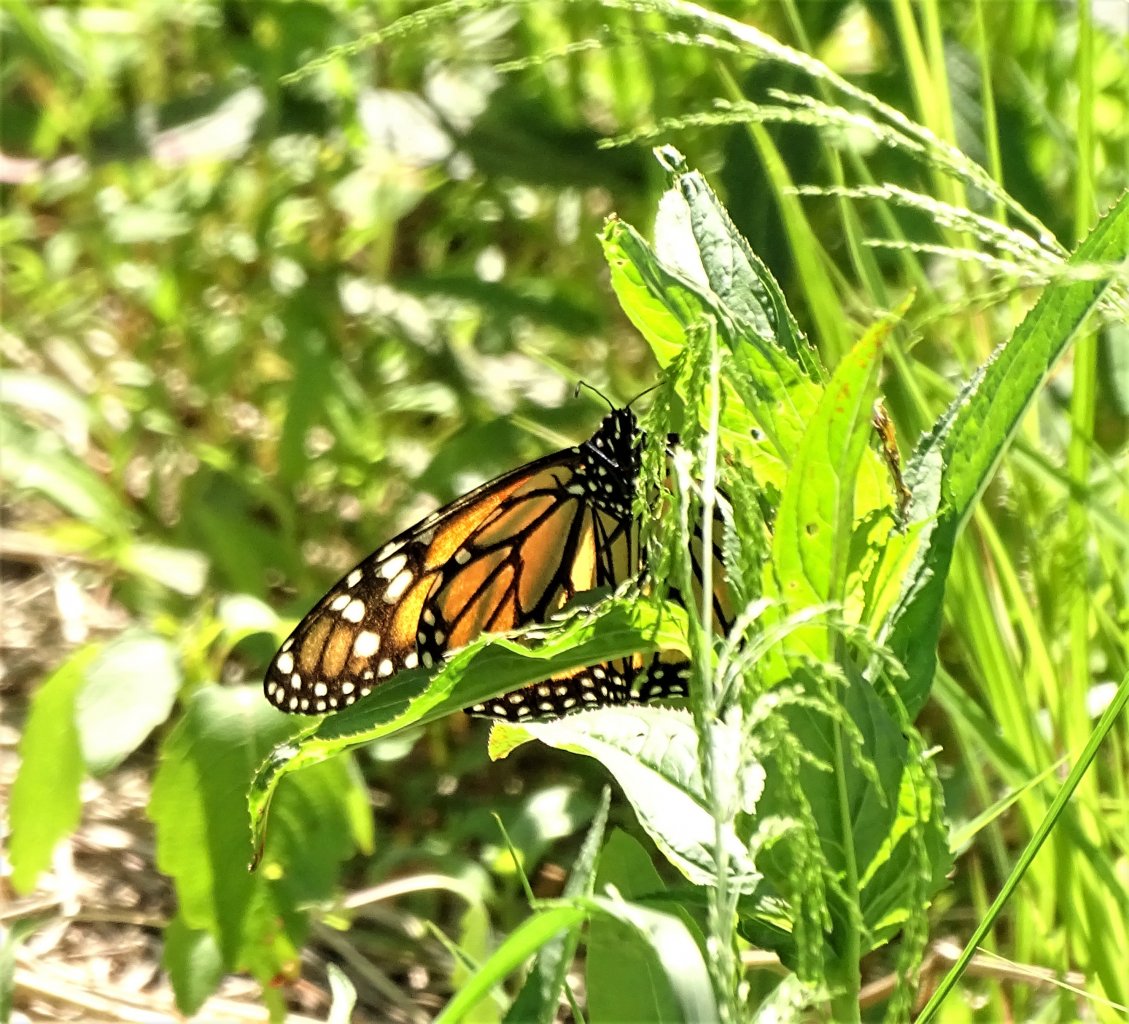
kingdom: Animalia
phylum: Arthropoda
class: Insecta
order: Lepidoptera
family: Nymphalidae
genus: Danaus
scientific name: Danaus plexippus
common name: Monarch
